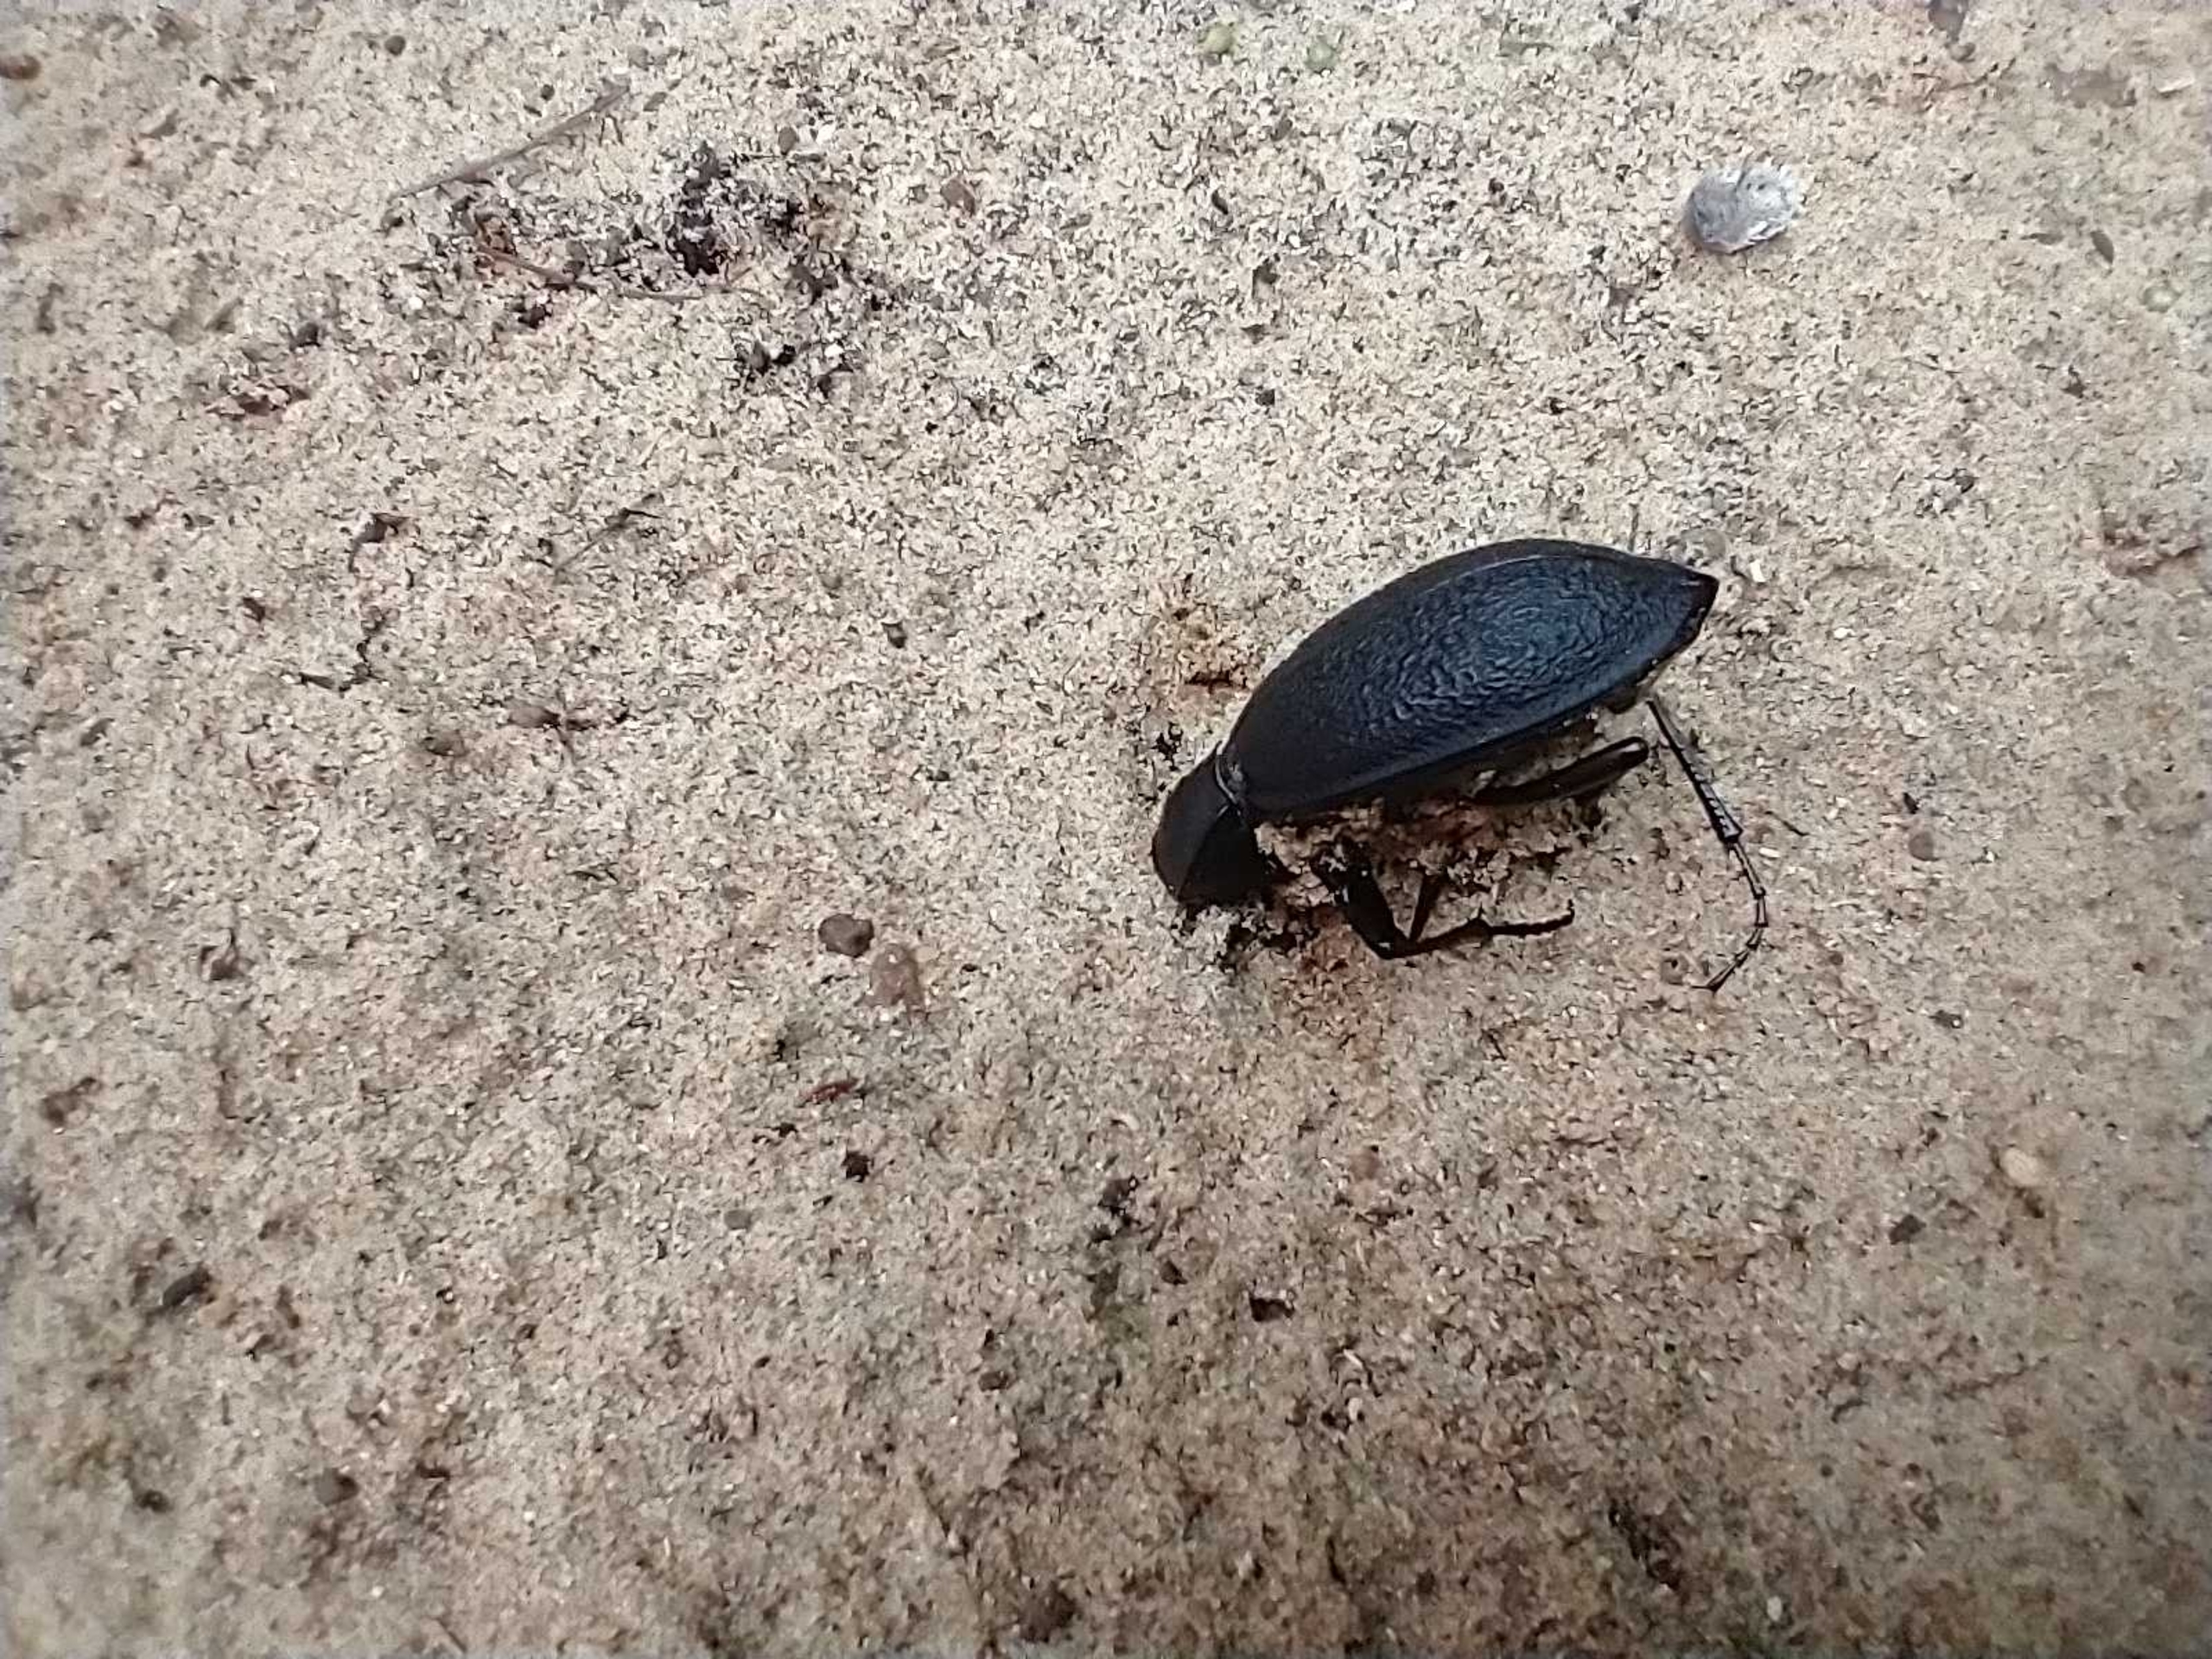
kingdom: Animalia
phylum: Arthropoda
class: Insecta
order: Coleoptera
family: Carabidae
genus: Carabus
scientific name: Carabus coriaceus
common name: Læderløber
